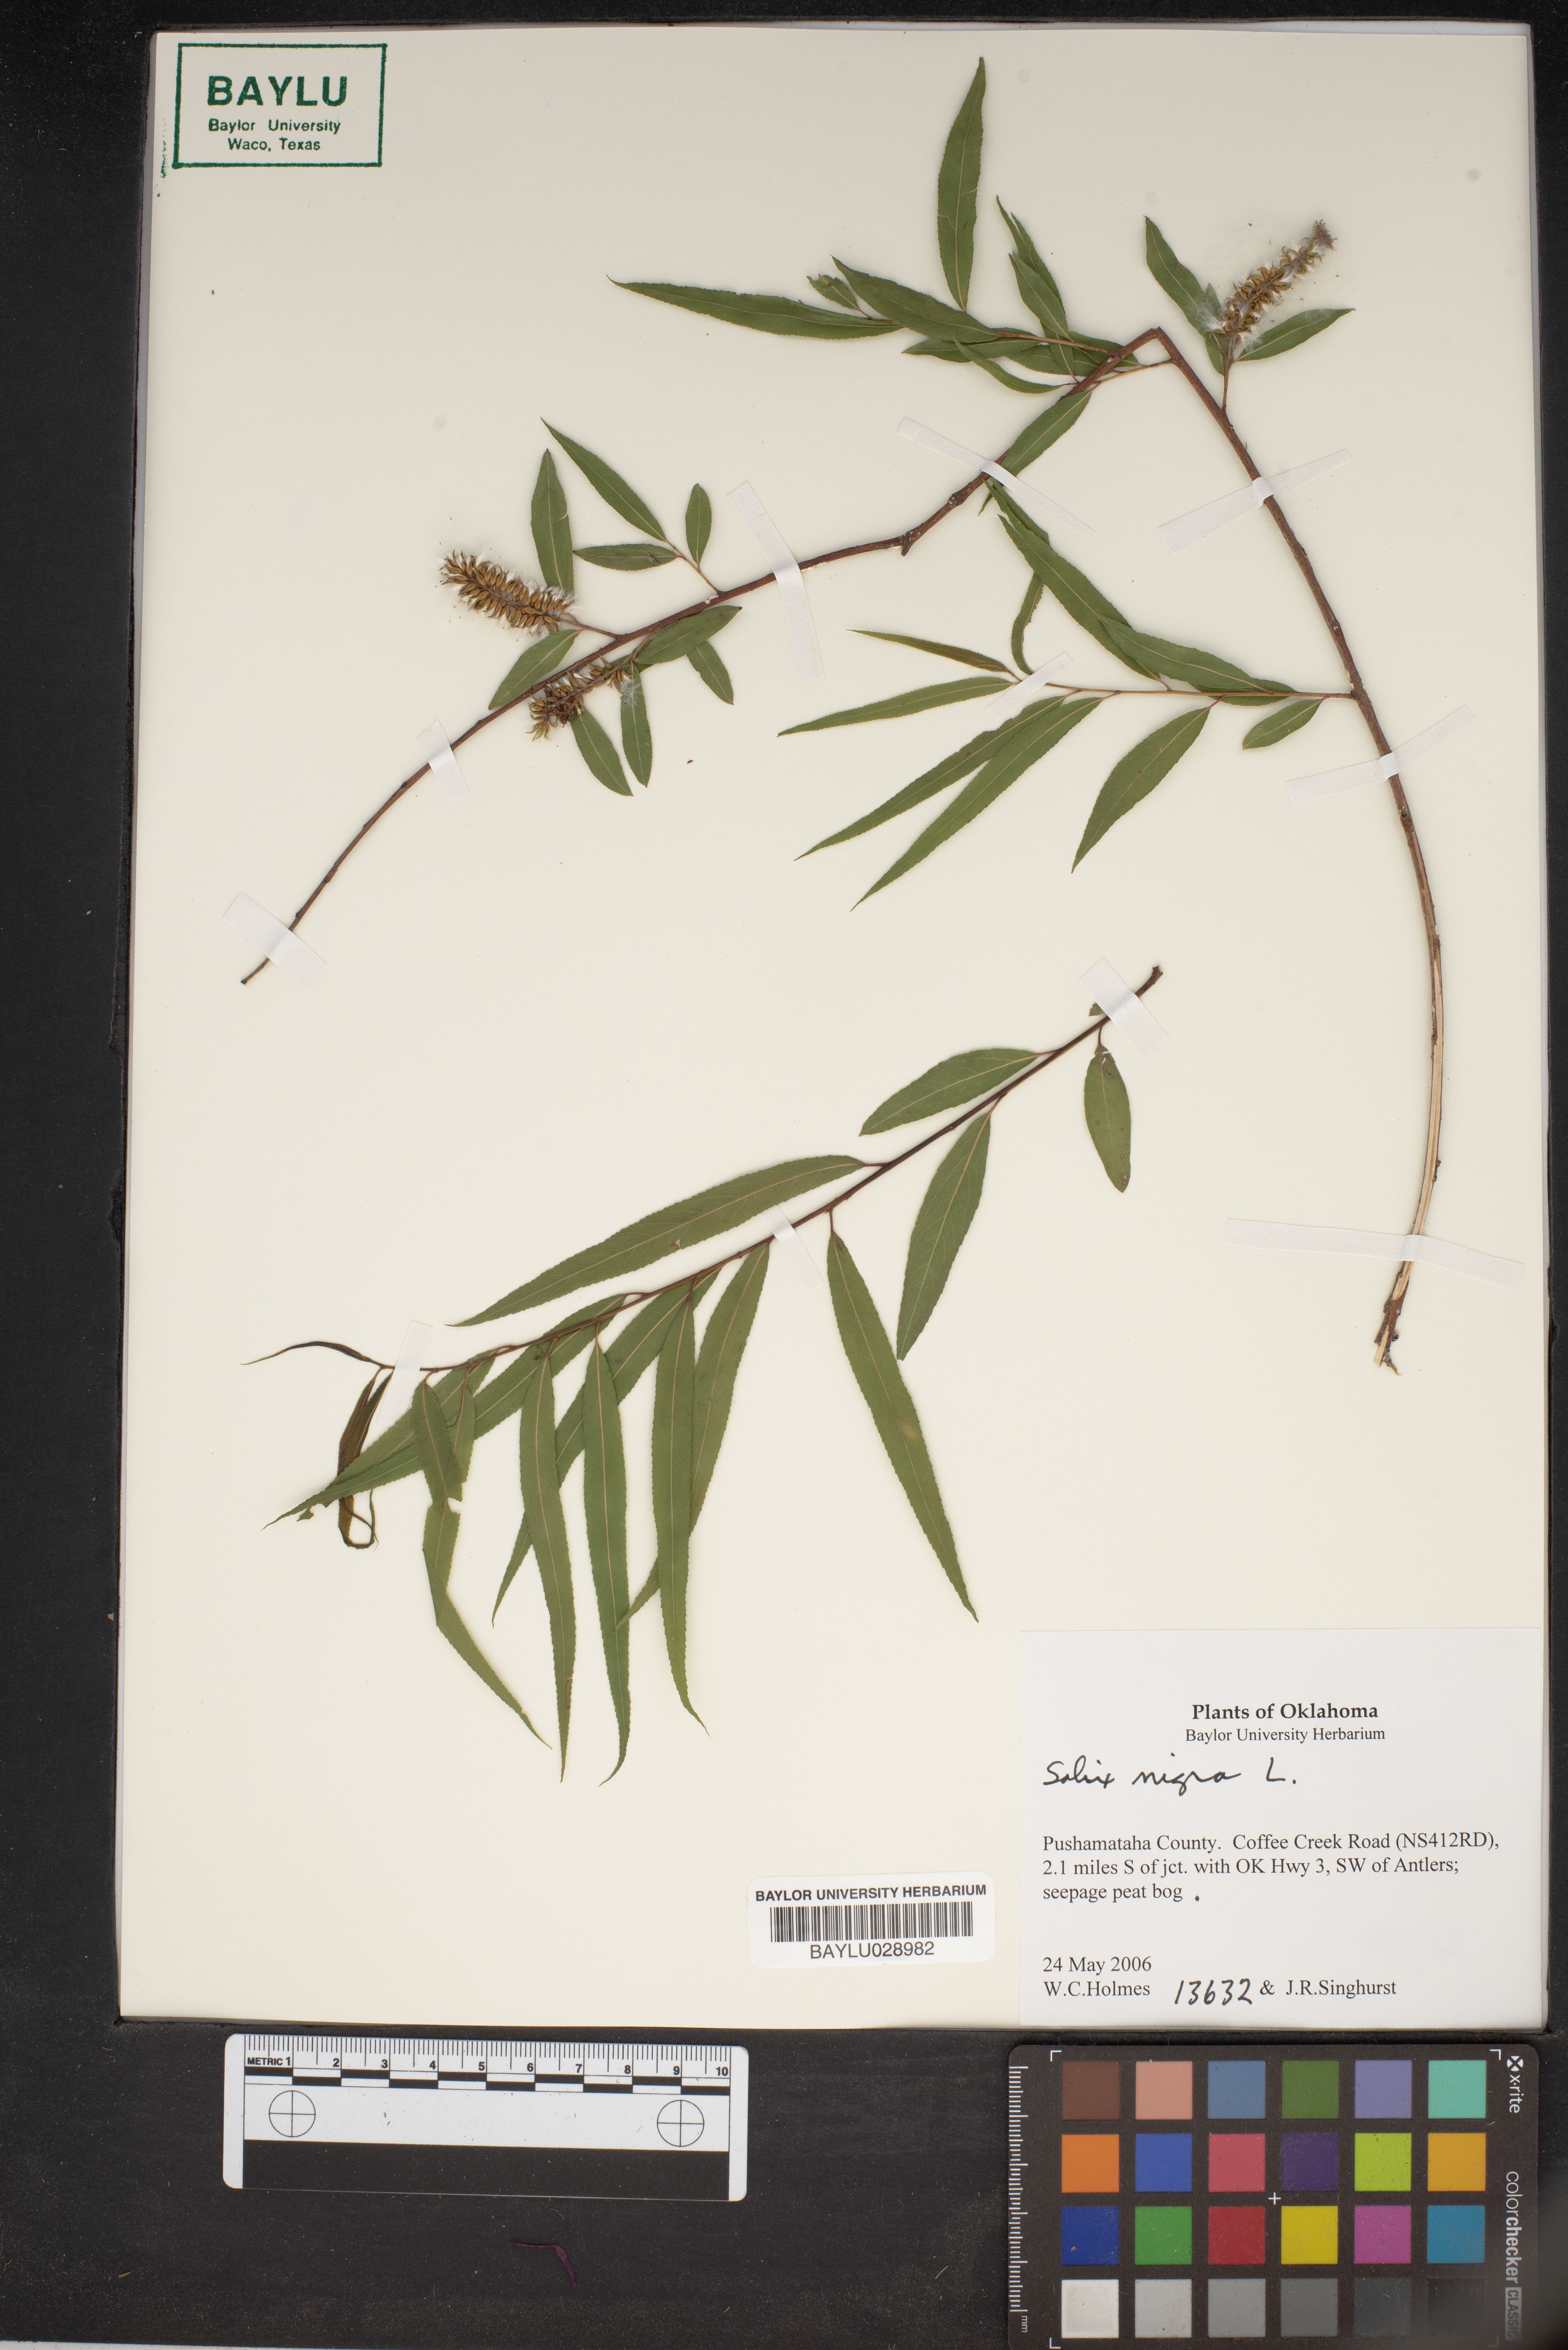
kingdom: Plantae
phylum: Tracheophyta
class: Magnoliopsida
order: Malpighiales
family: Salicaceae
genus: Salix
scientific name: Salix nigra
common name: Black willow
